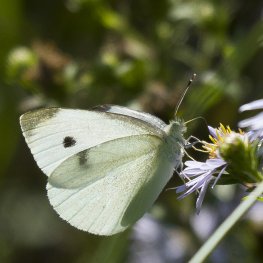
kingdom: Animalia
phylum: Arthropoda
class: Insecta
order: Lepidoptera
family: Pieridae
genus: Pieris
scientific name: Pieris rapae
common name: Cabbage White
